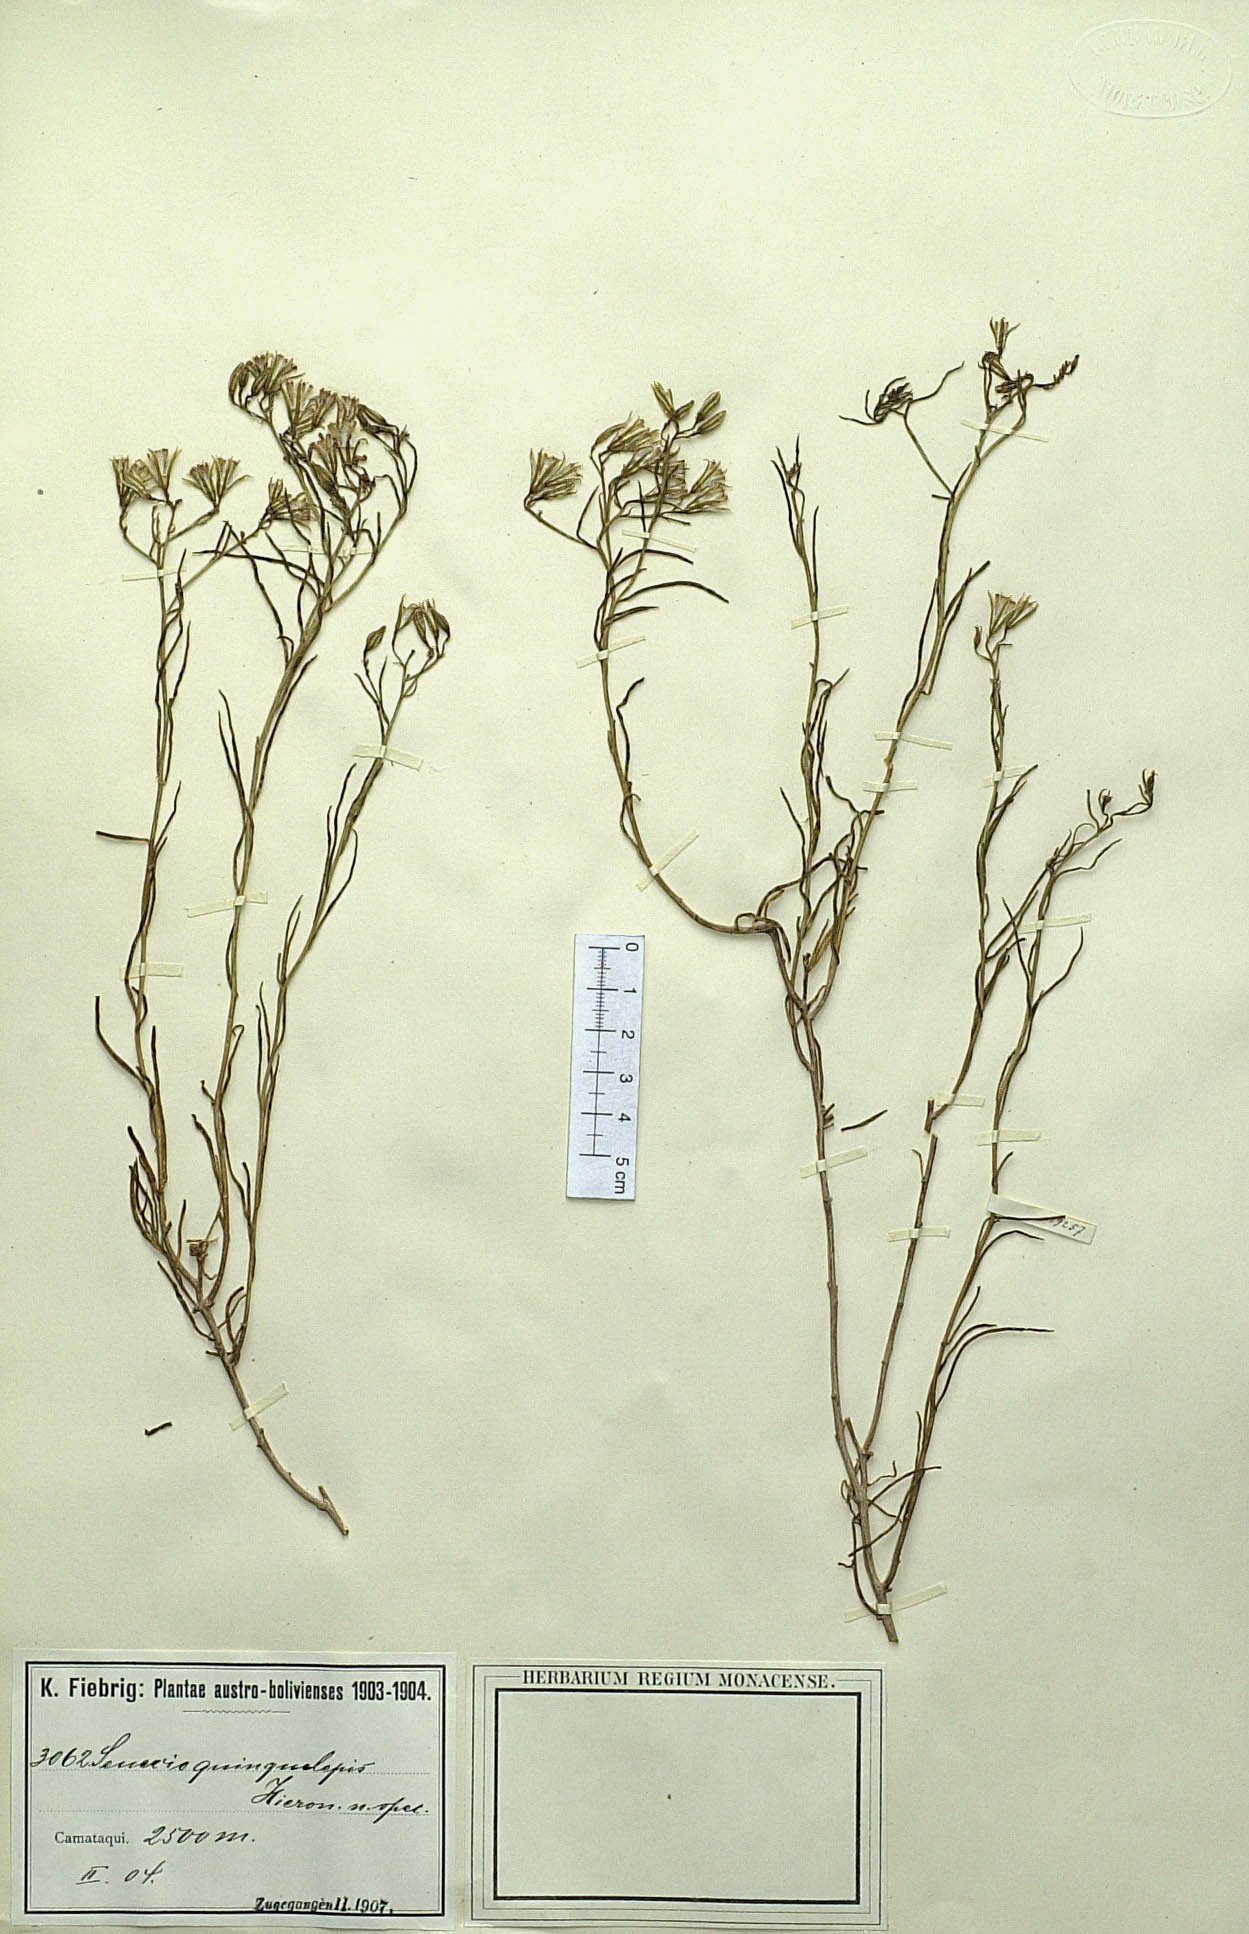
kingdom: Plantae
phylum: Tracheophyta
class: Magnoliopsida
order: Asterales
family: Asteraceae
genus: Senecio
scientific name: Senecio quinquelepis
